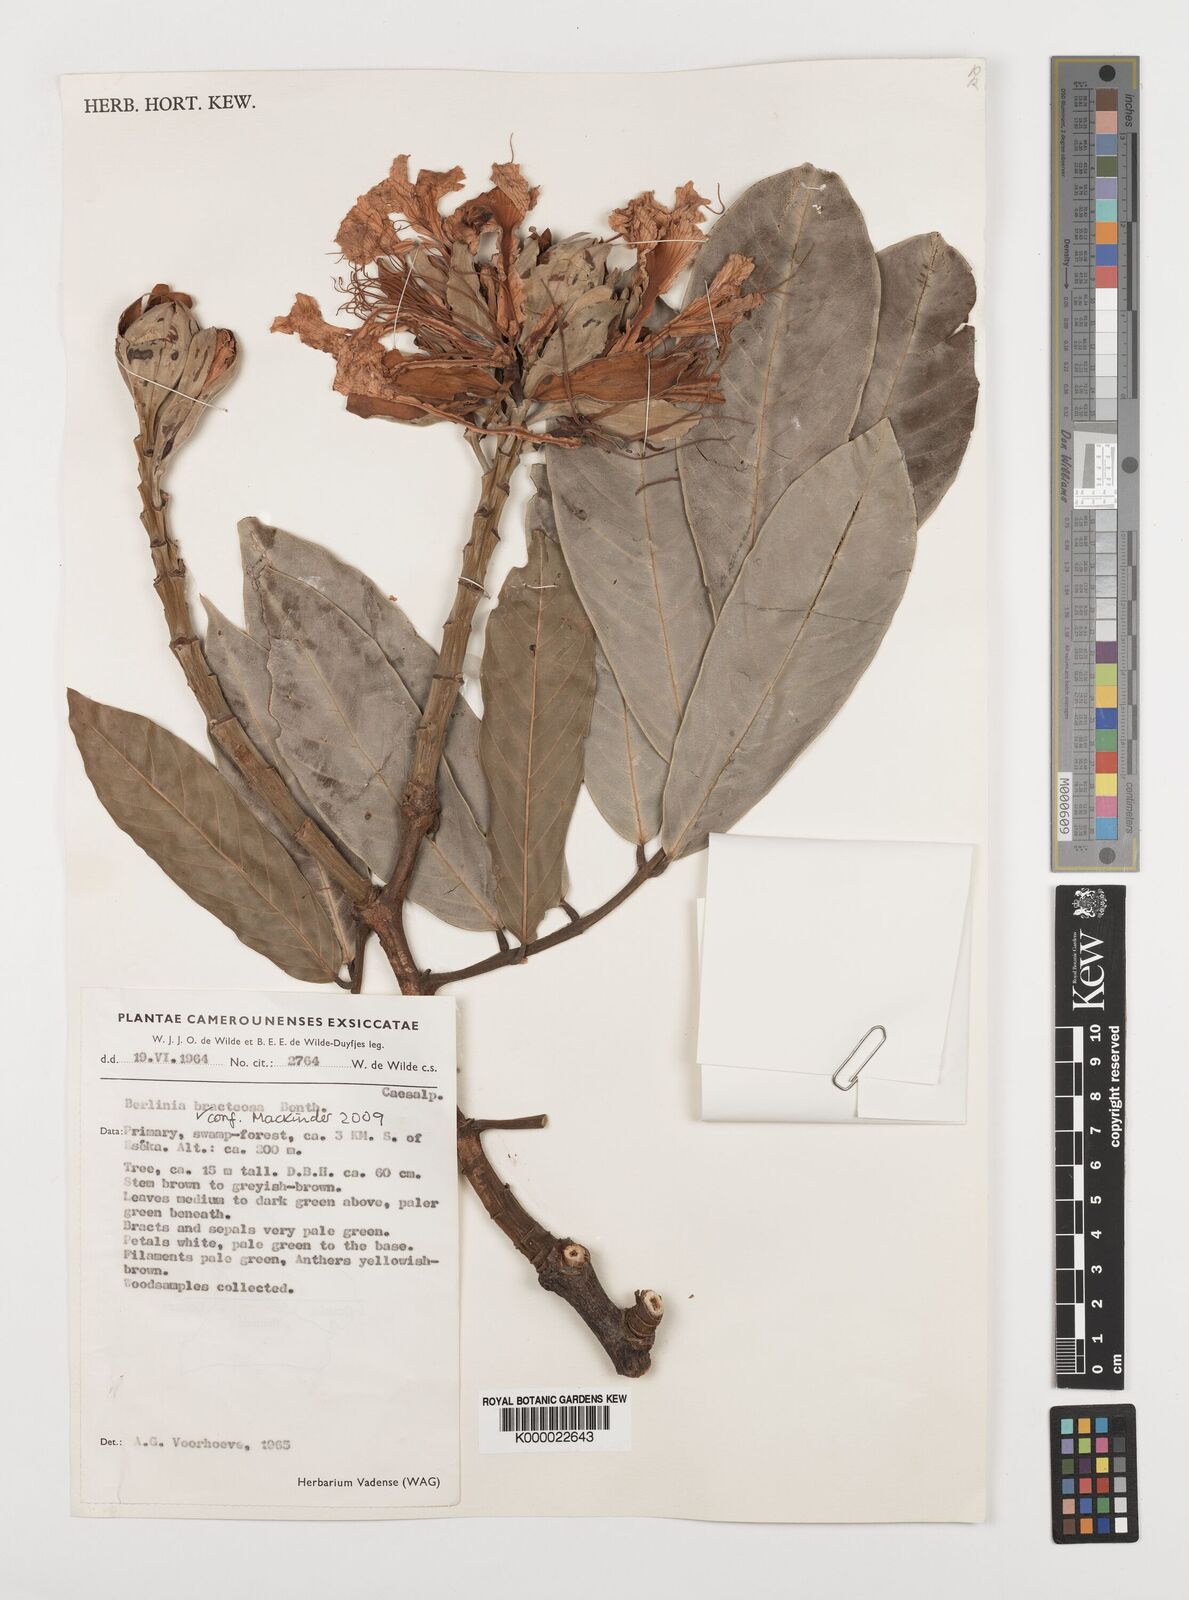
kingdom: Plantae
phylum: Tracheophyta
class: Magnoliopsida
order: Fabales
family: Fabaceae
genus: Berlinia
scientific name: Berlinia bracteosa
